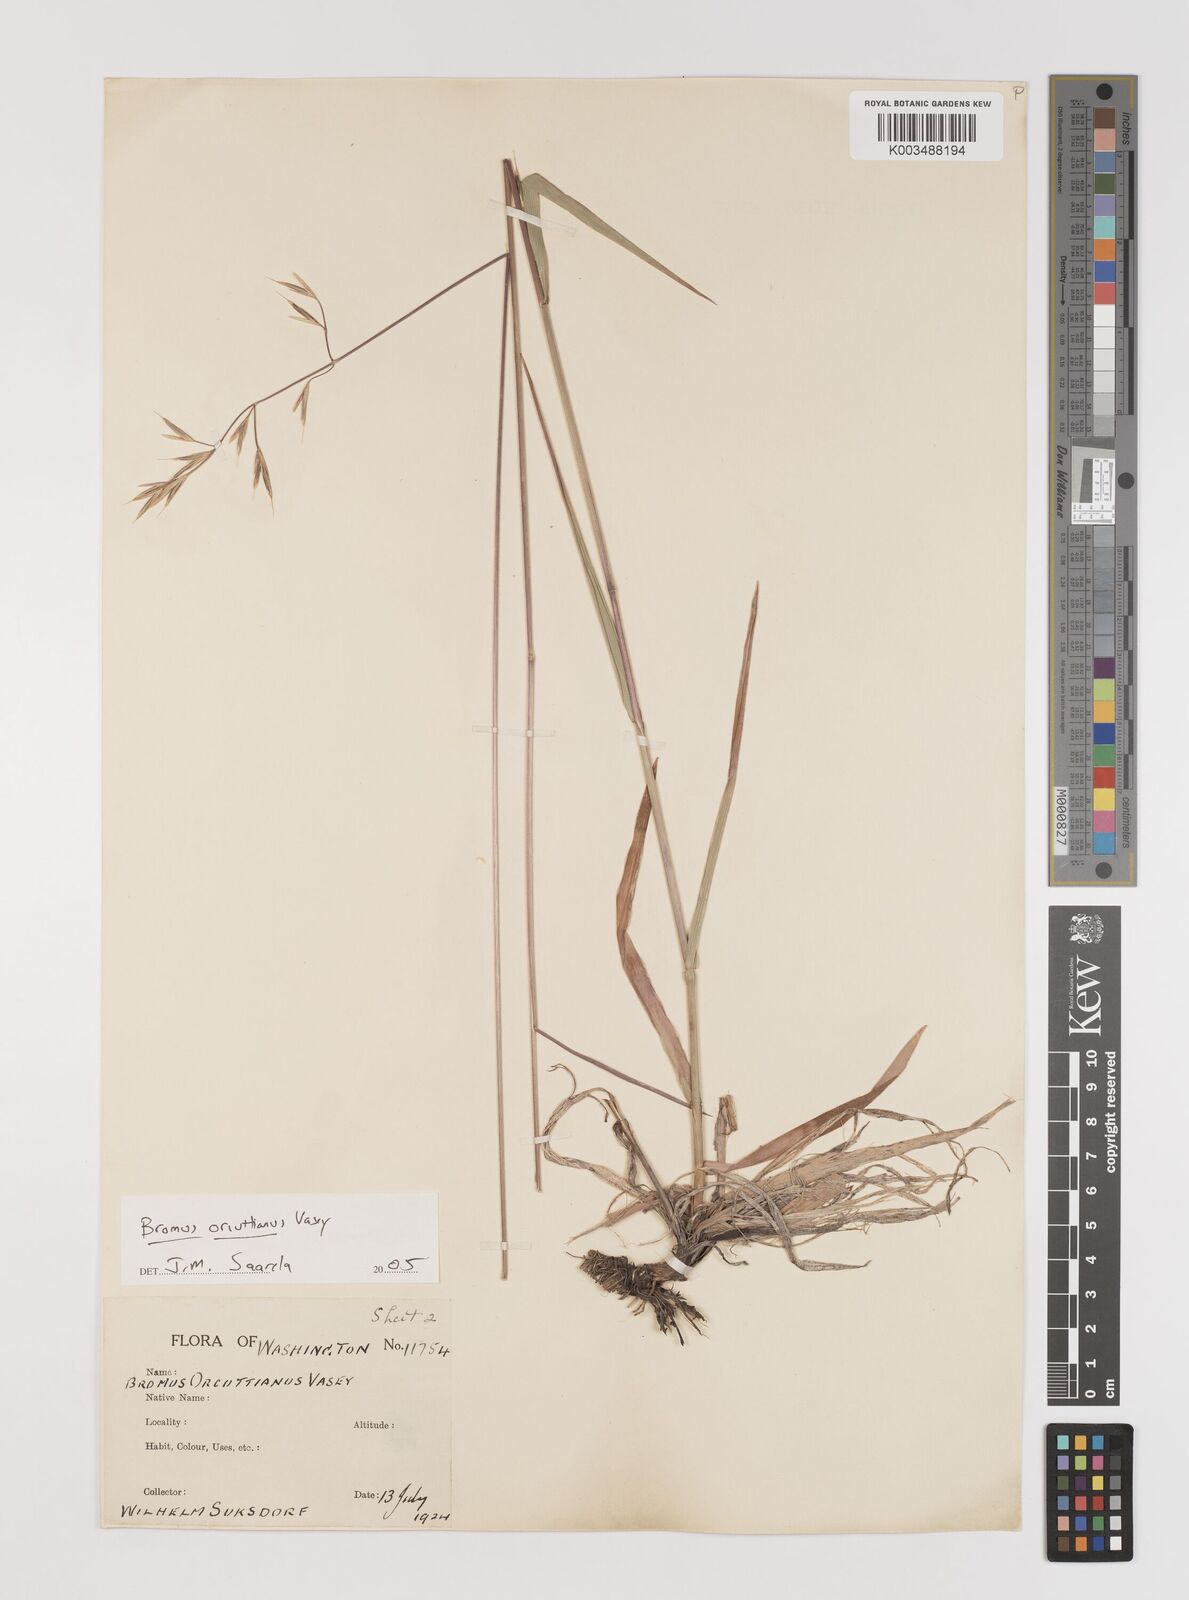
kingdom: Plantae
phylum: Tracheophyta
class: Liliopsida
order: Poales
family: Poaceae
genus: Bromus
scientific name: Bromus orcuttianus
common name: Orcutt's brome
